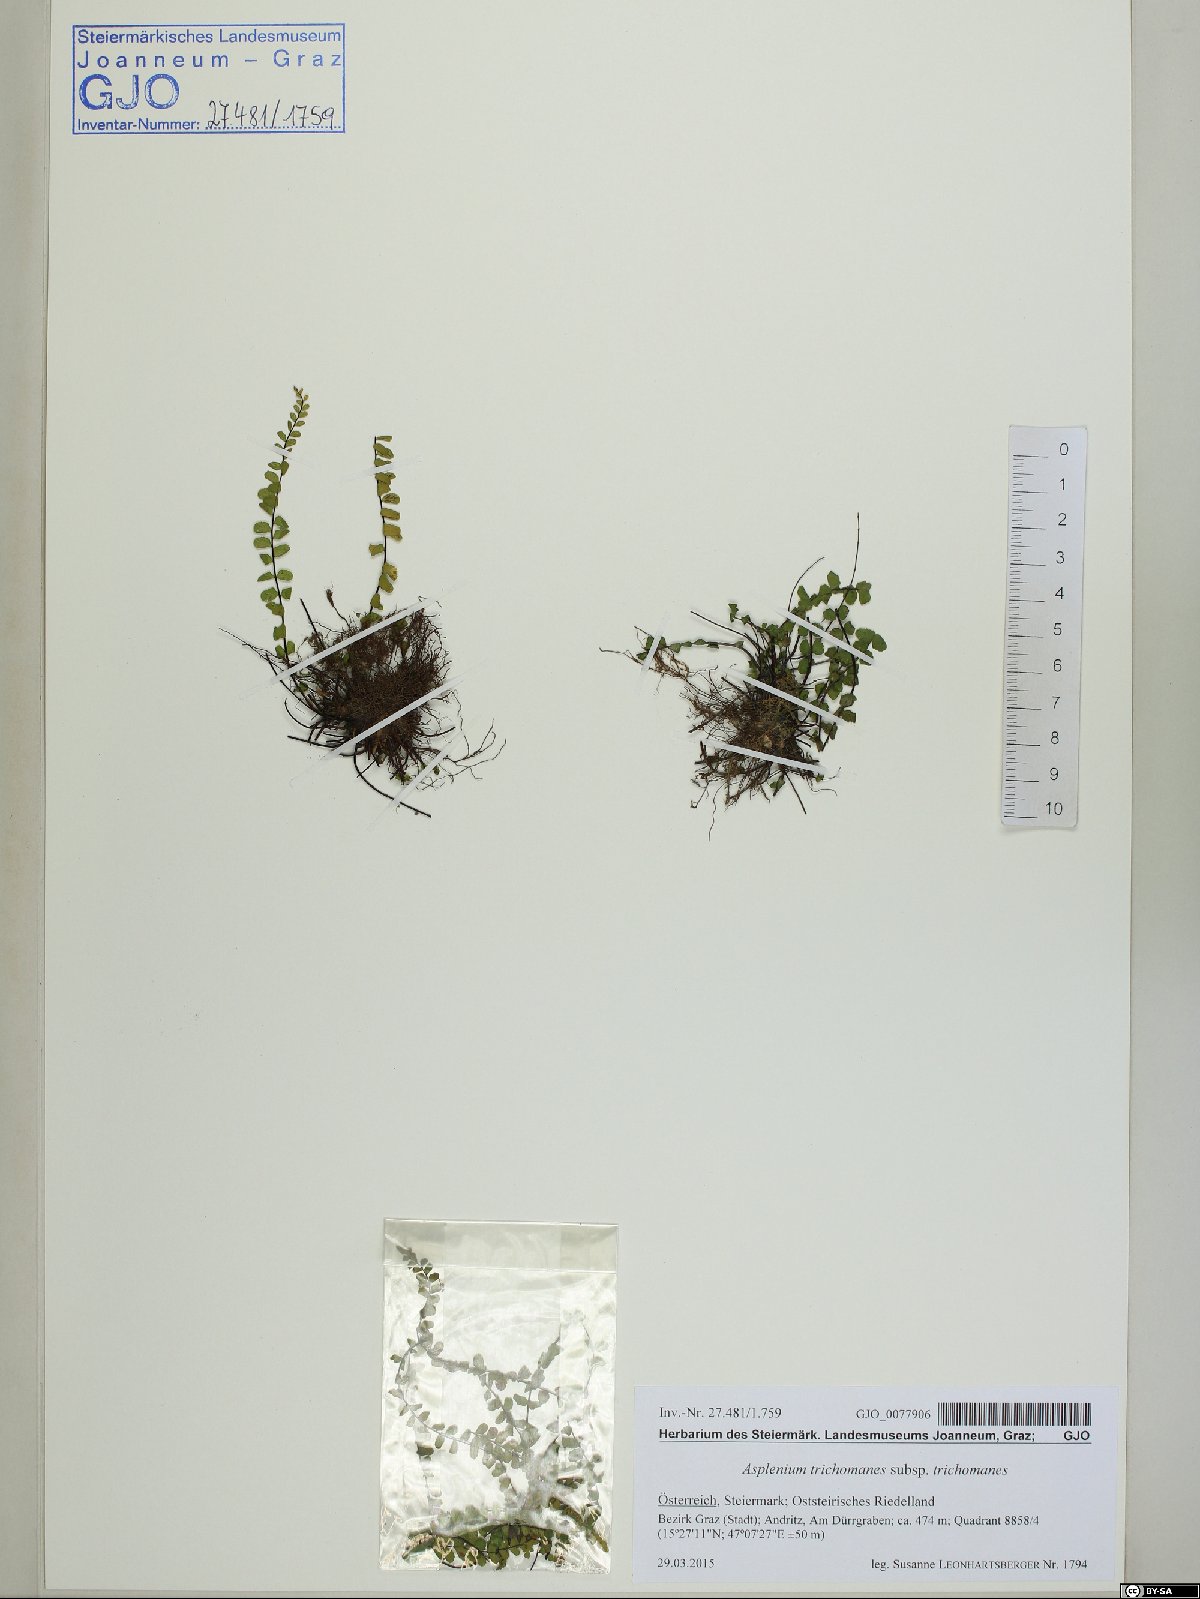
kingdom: Plantae
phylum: Tracheophyta
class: Polypodiopsida
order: Polypodiales
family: Aspleniaceae
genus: Asplenium
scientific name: Asplenium trichomanes
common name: Maidenhair spleenwort
